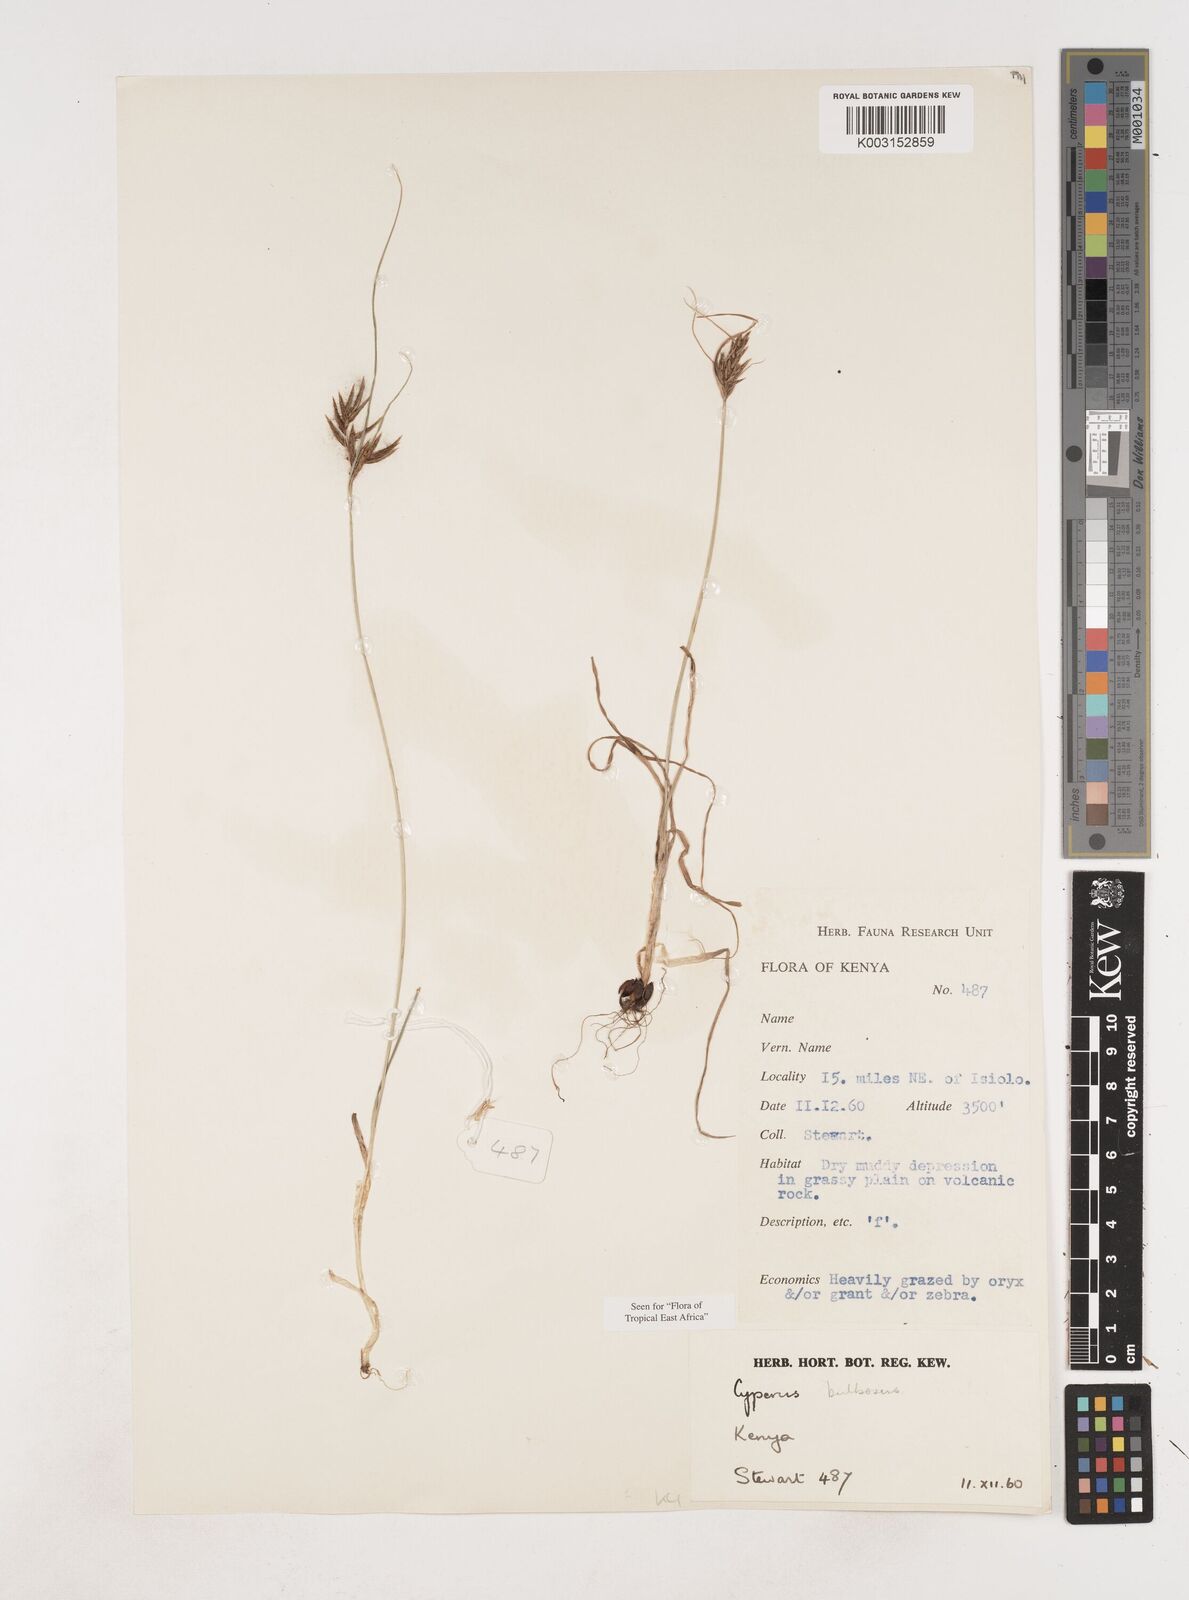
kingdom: Plantae
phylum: Tracheophyta
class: Liliopsida
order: Poales
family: Cyperaceae
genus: Cyperus
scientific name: Cyperus bulbosus
